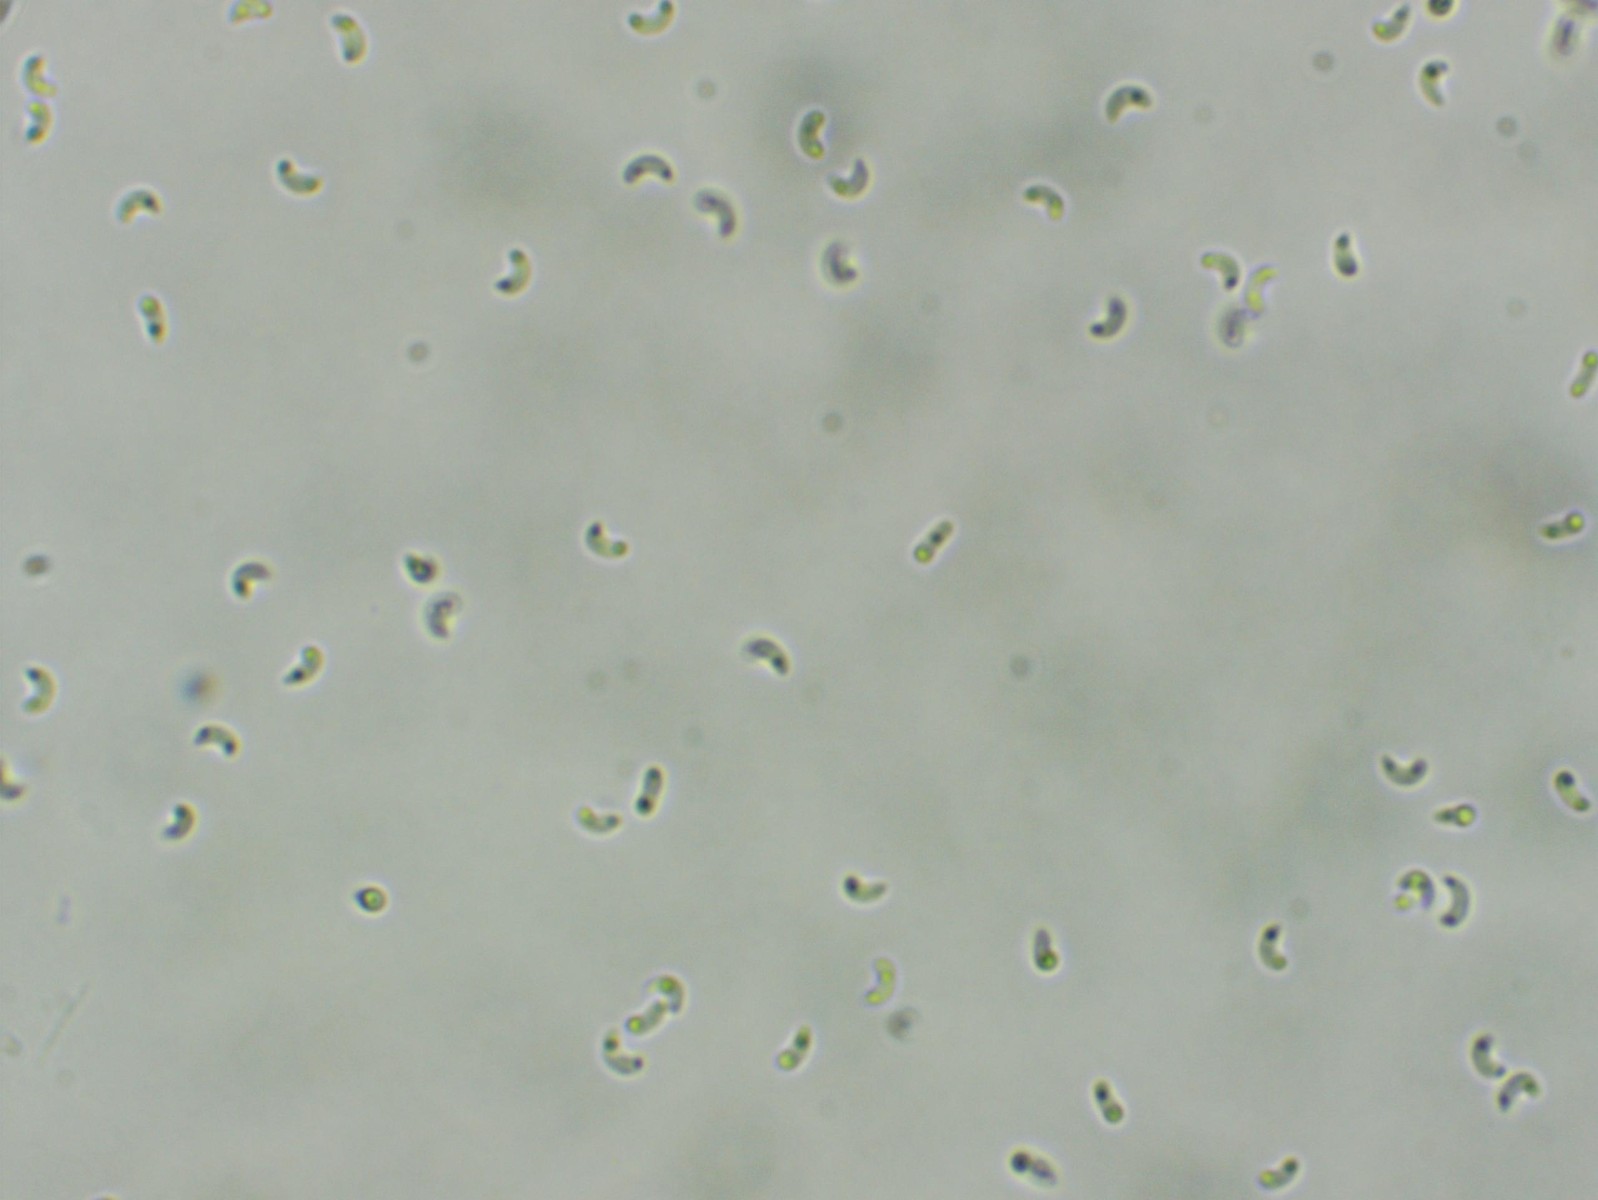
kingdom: Fungi
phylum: Basidiomycota
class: Agaricomycetes
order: Hymenochaetales
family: Rickenellaceae
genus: Sidera
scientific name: Sidera vulgaris
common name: fin flødeporesvamp
